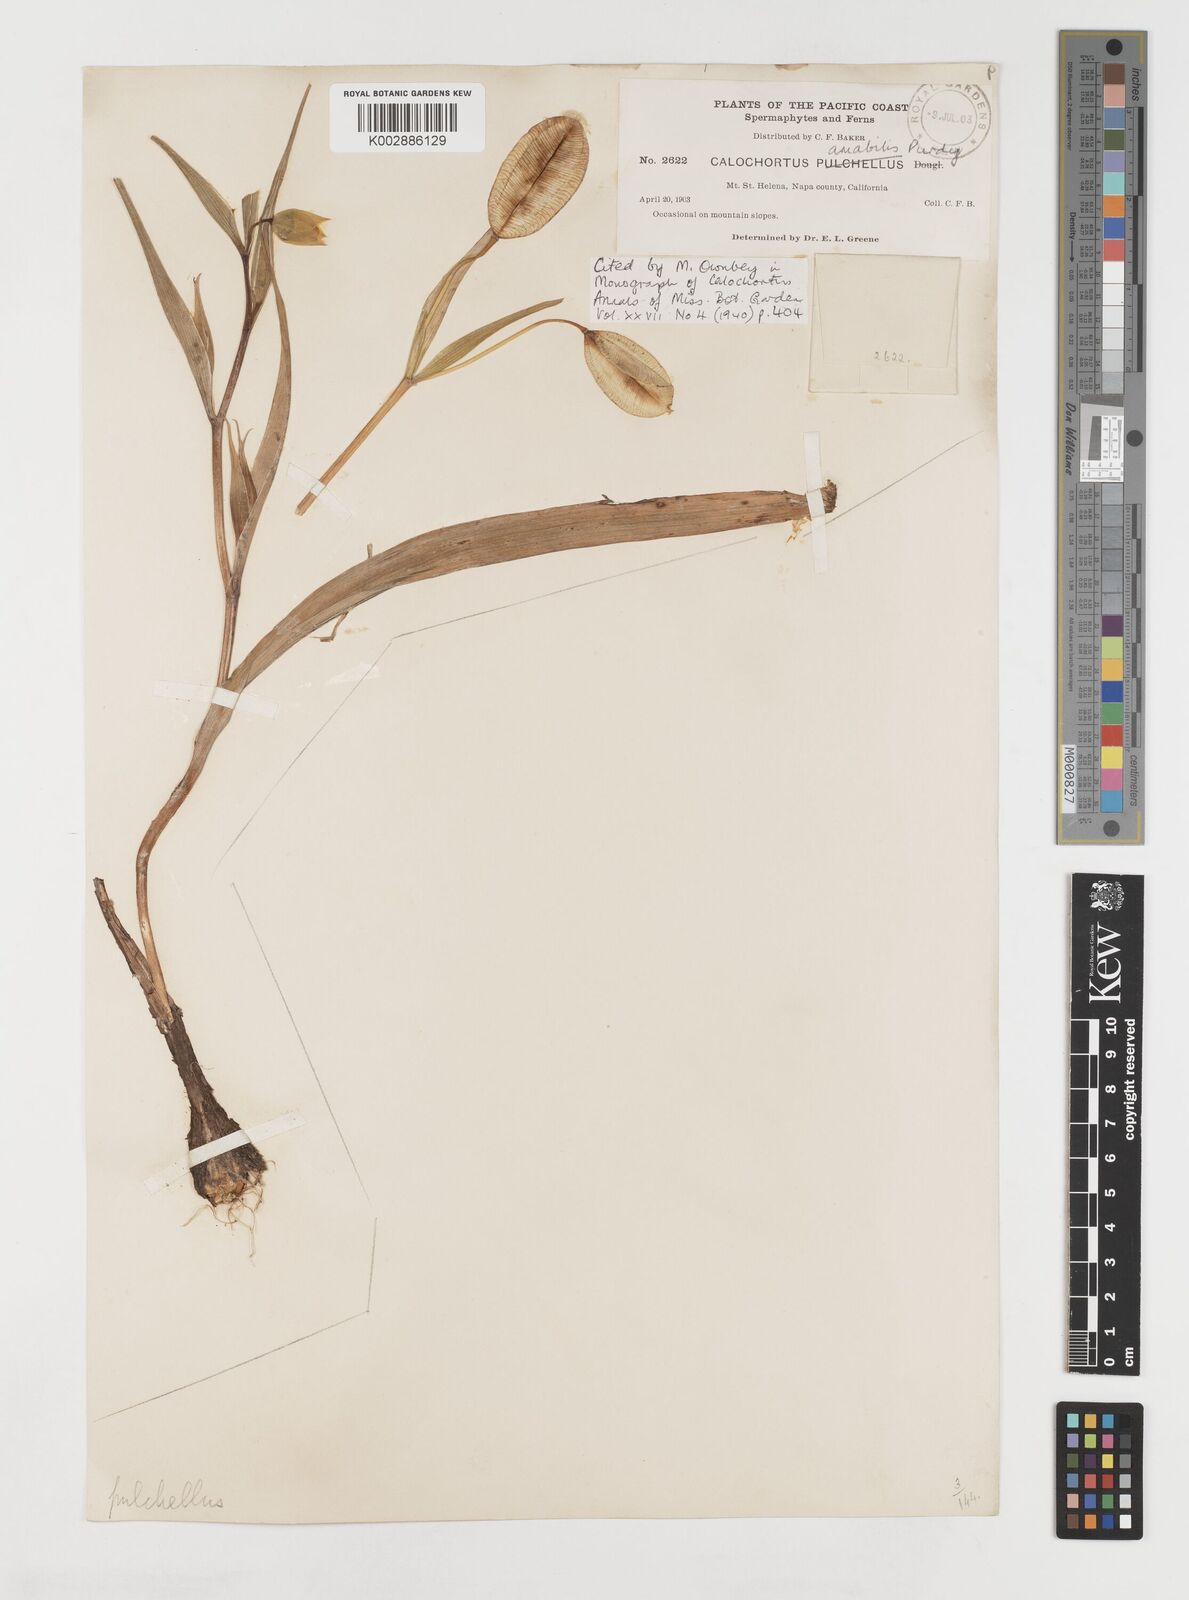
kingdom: Plantae
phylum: Tracheophyta
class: Liliopsida
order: Liliales
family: Liliaceae
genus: Calochortus
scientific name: Calochortus amabilis
